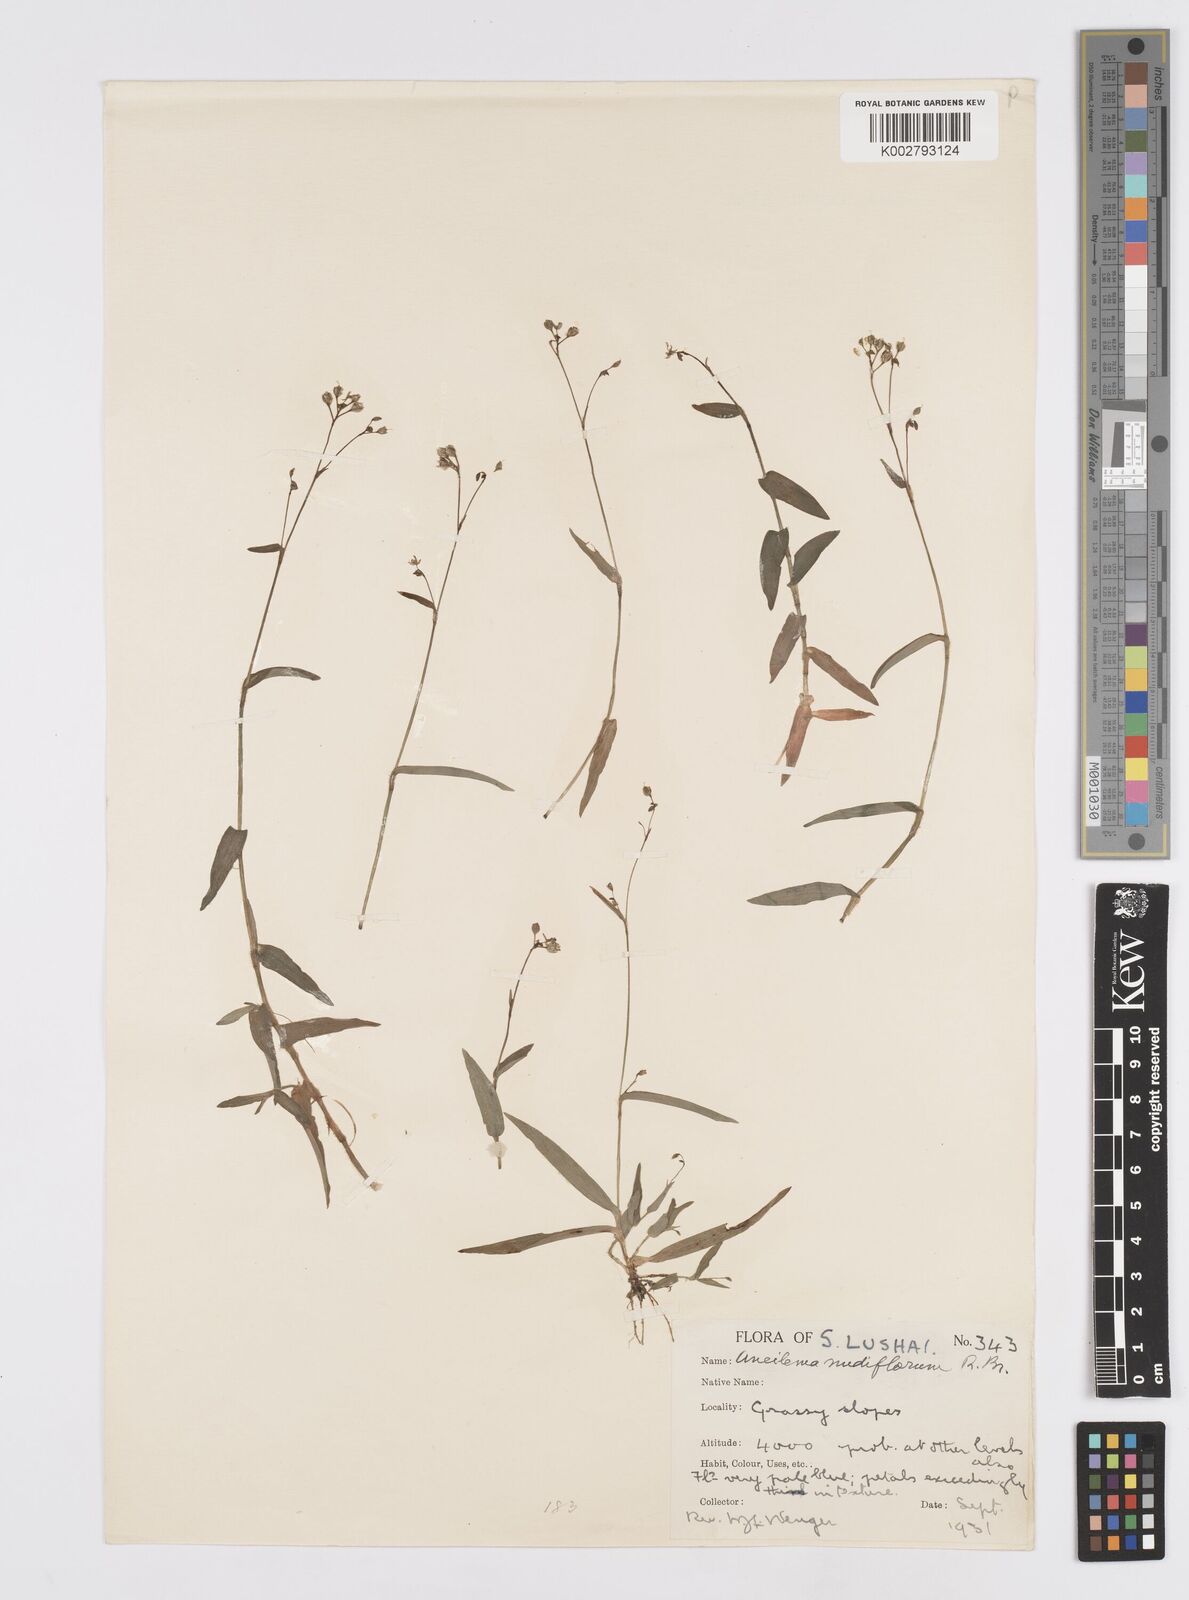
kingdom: Plantae
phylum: Tracheophyta
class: Liliopsida
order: Commelinales
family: Commelinaceae
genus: Murdannia
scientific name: Murdannia nudiflora
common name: Nakedstem dewflower
